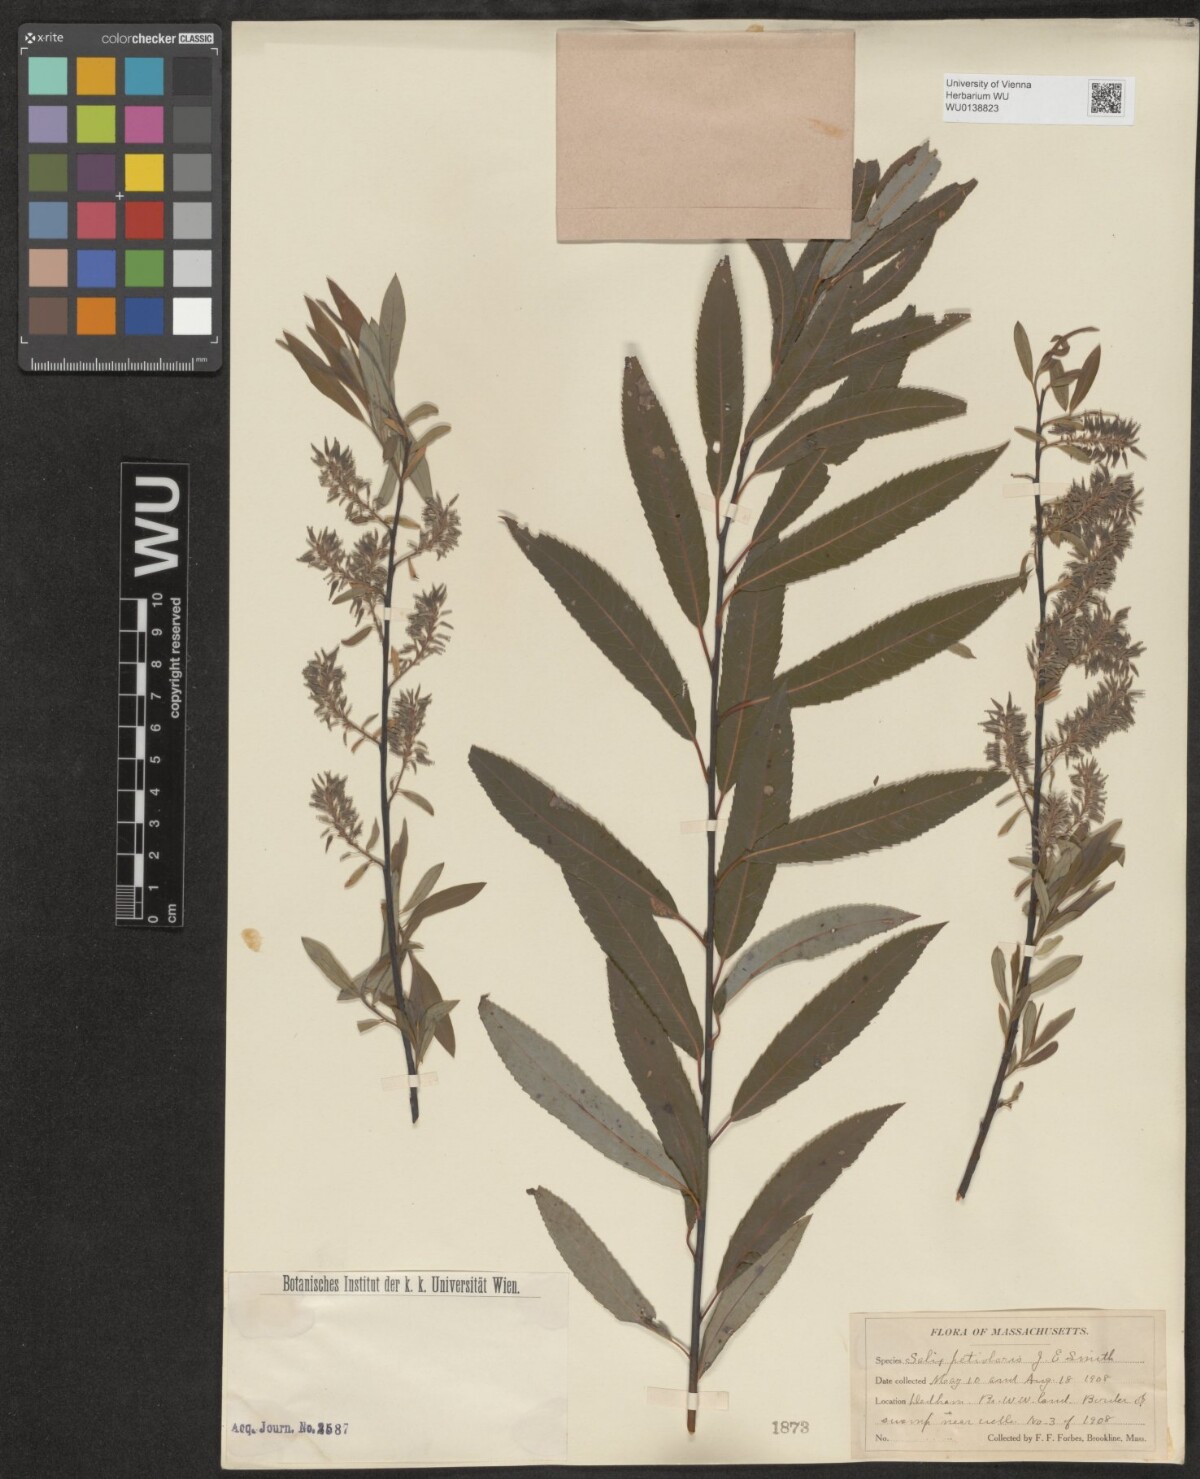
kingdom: Plantae
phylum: Tracheophyta
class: Magnoliopsida
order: Malpighiales
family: Salicaceae
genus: Salix
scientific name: Salix petiolaris
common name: Slender willow
